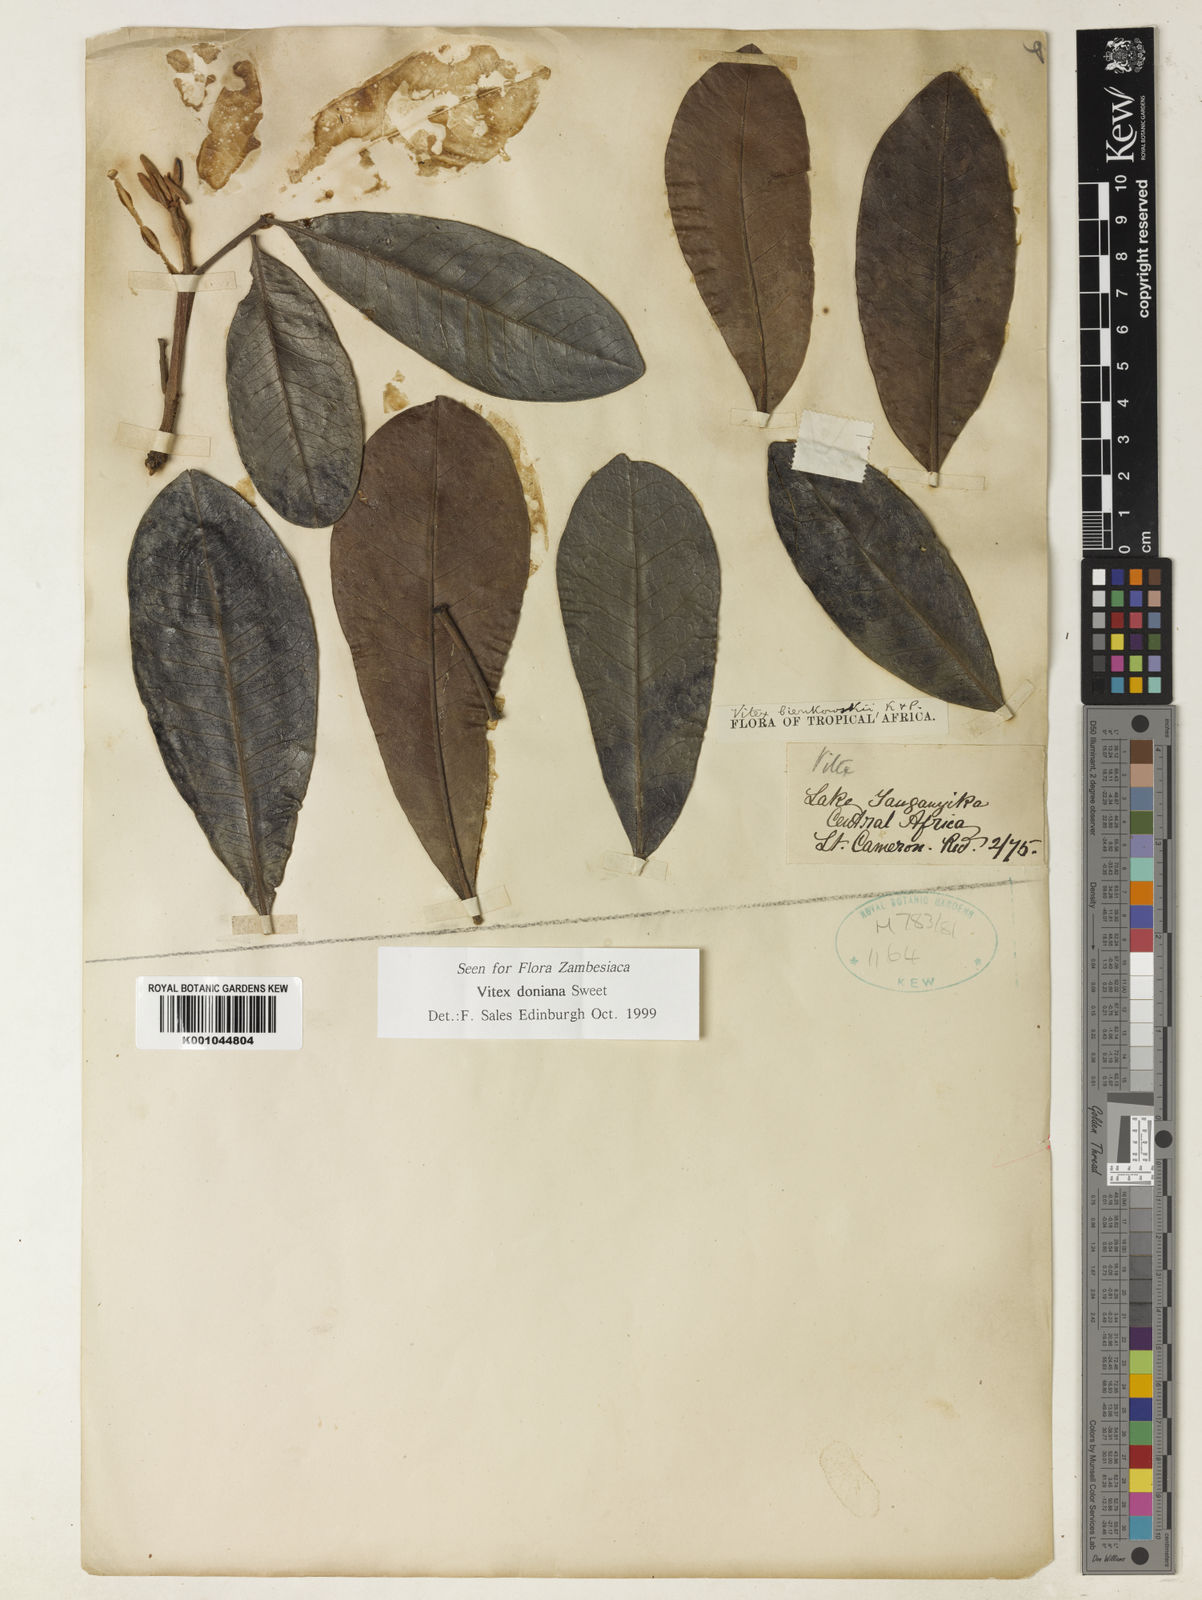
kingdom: Plantae
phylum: Tracheophyta
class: Magnoliopsida
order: Lamiales
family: Lamiaceae
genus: Vitex
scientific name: Vitex doniana
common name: Black plum
